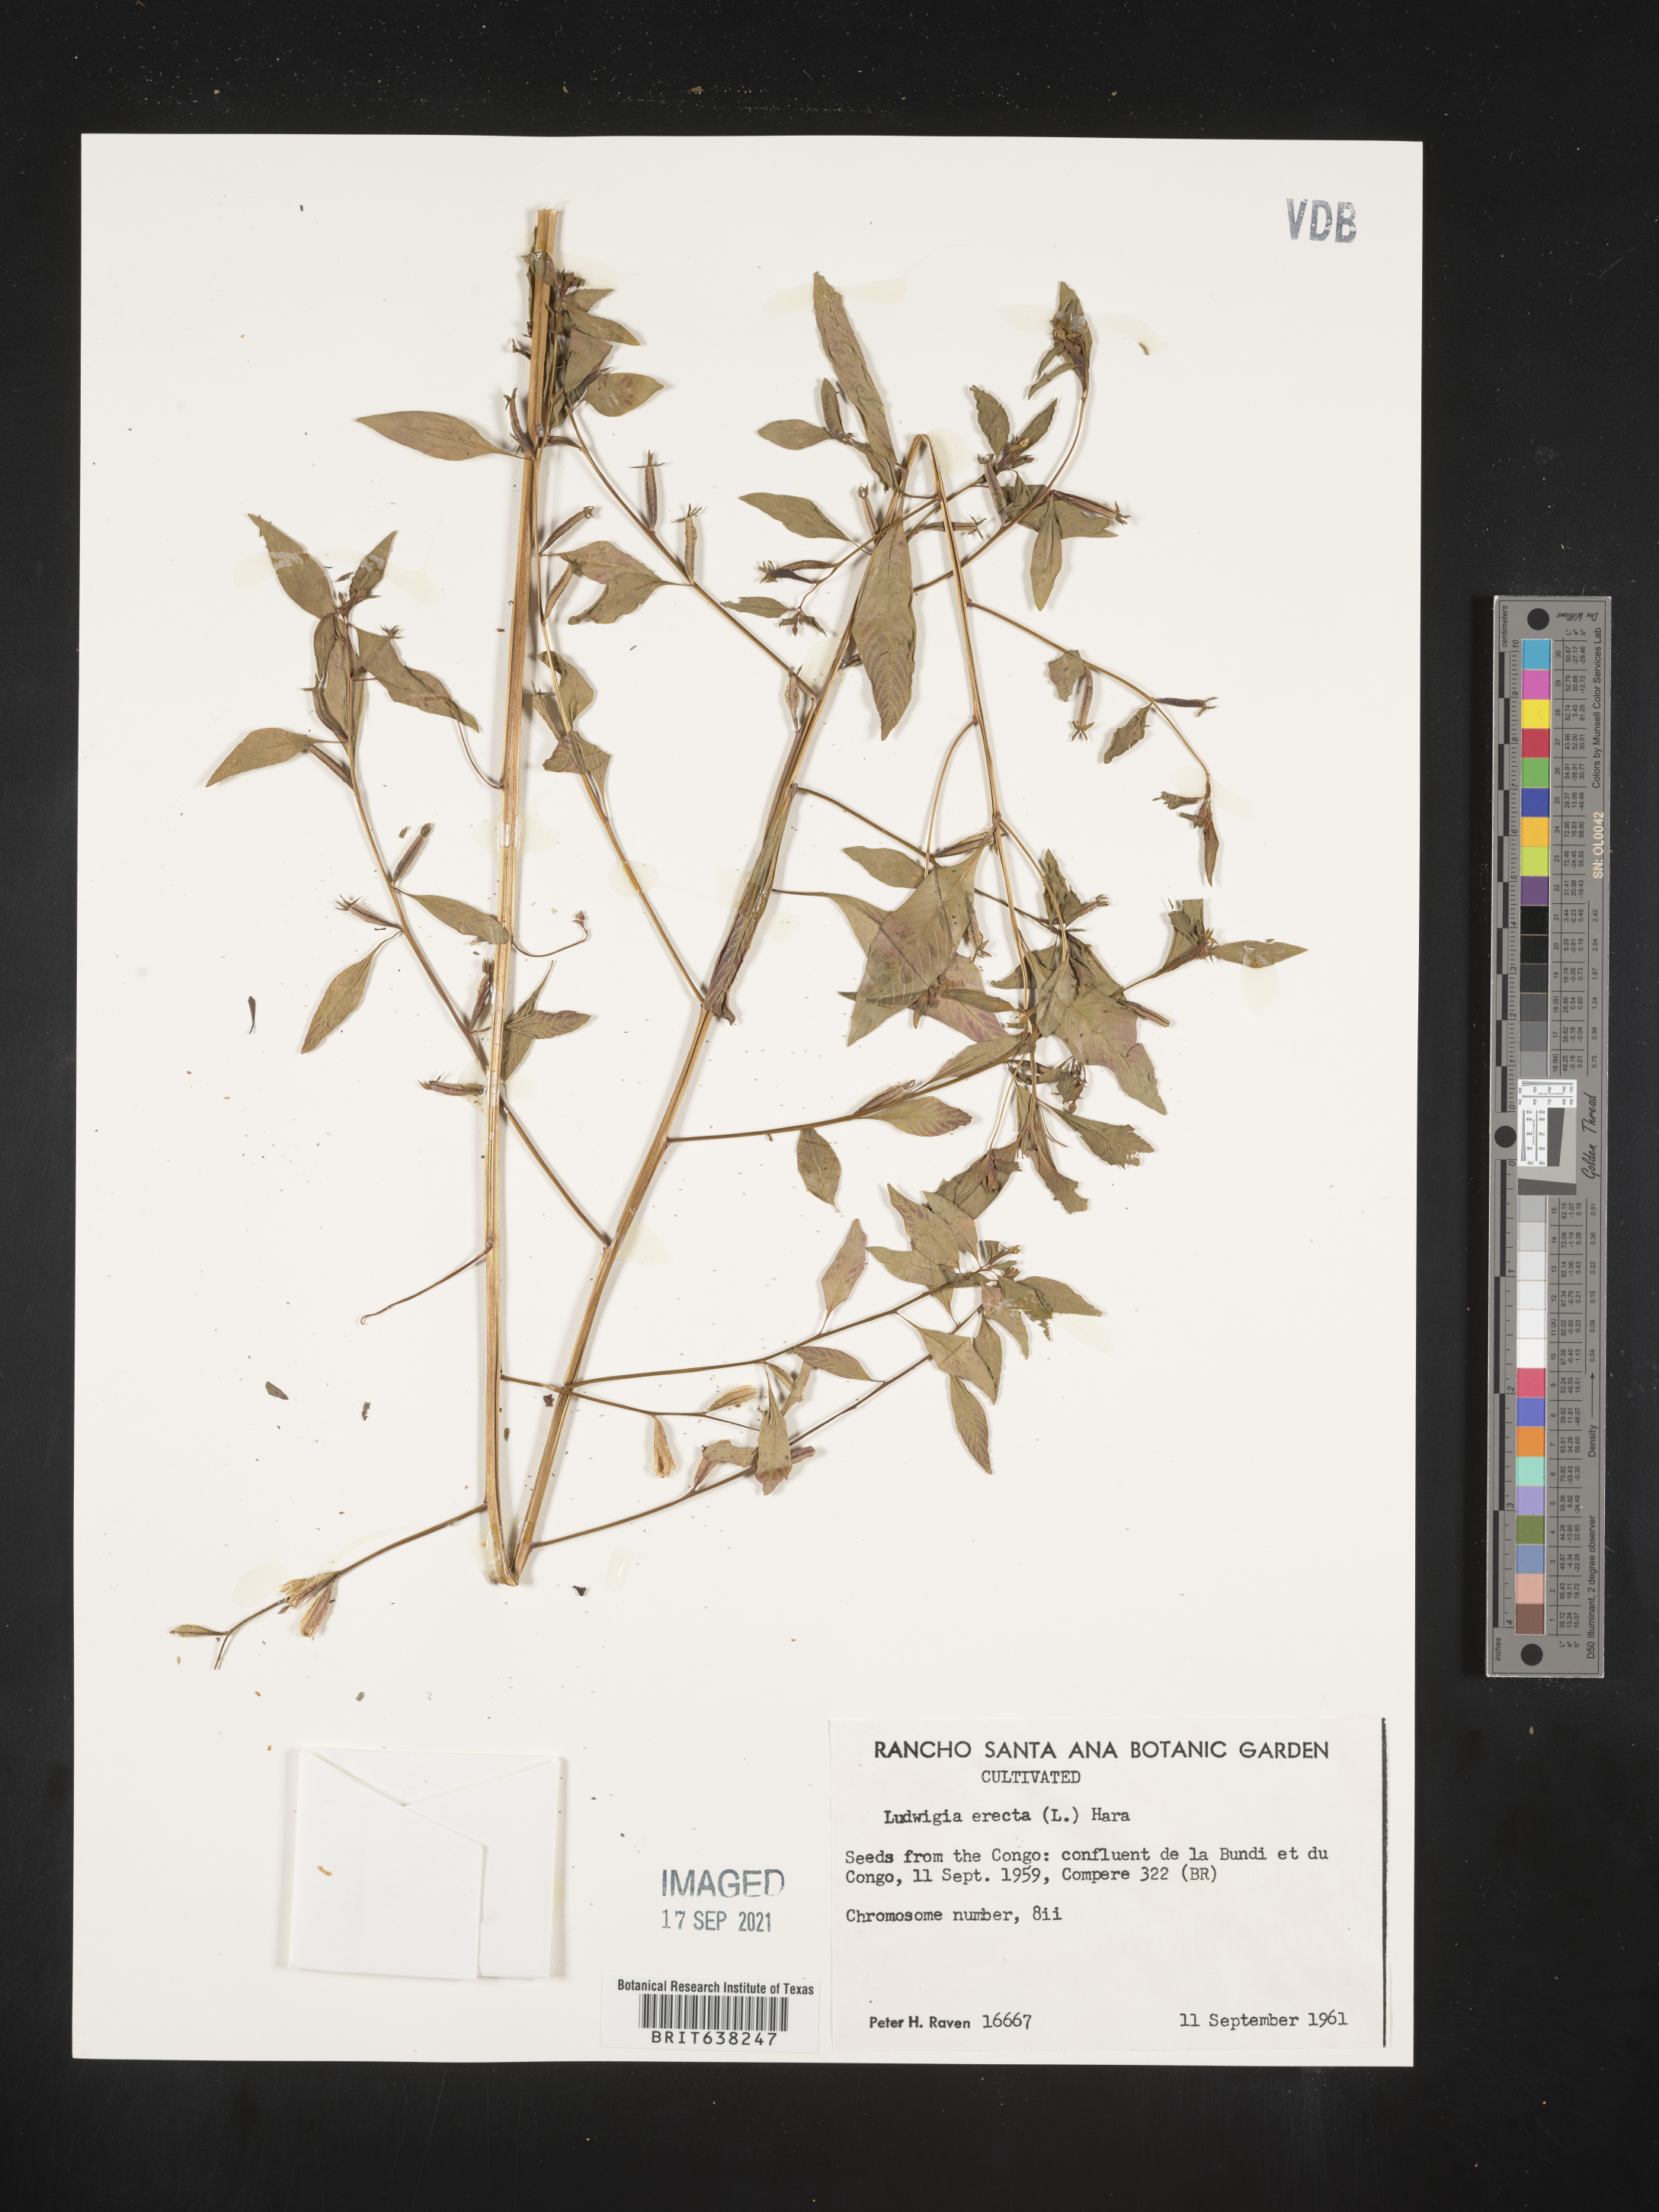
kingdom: Plantae
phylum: Tracheophyta
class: Magnoliopsida
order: Myrtales
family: Onagraceae
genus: Ludwigia
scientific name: Ludwigia
